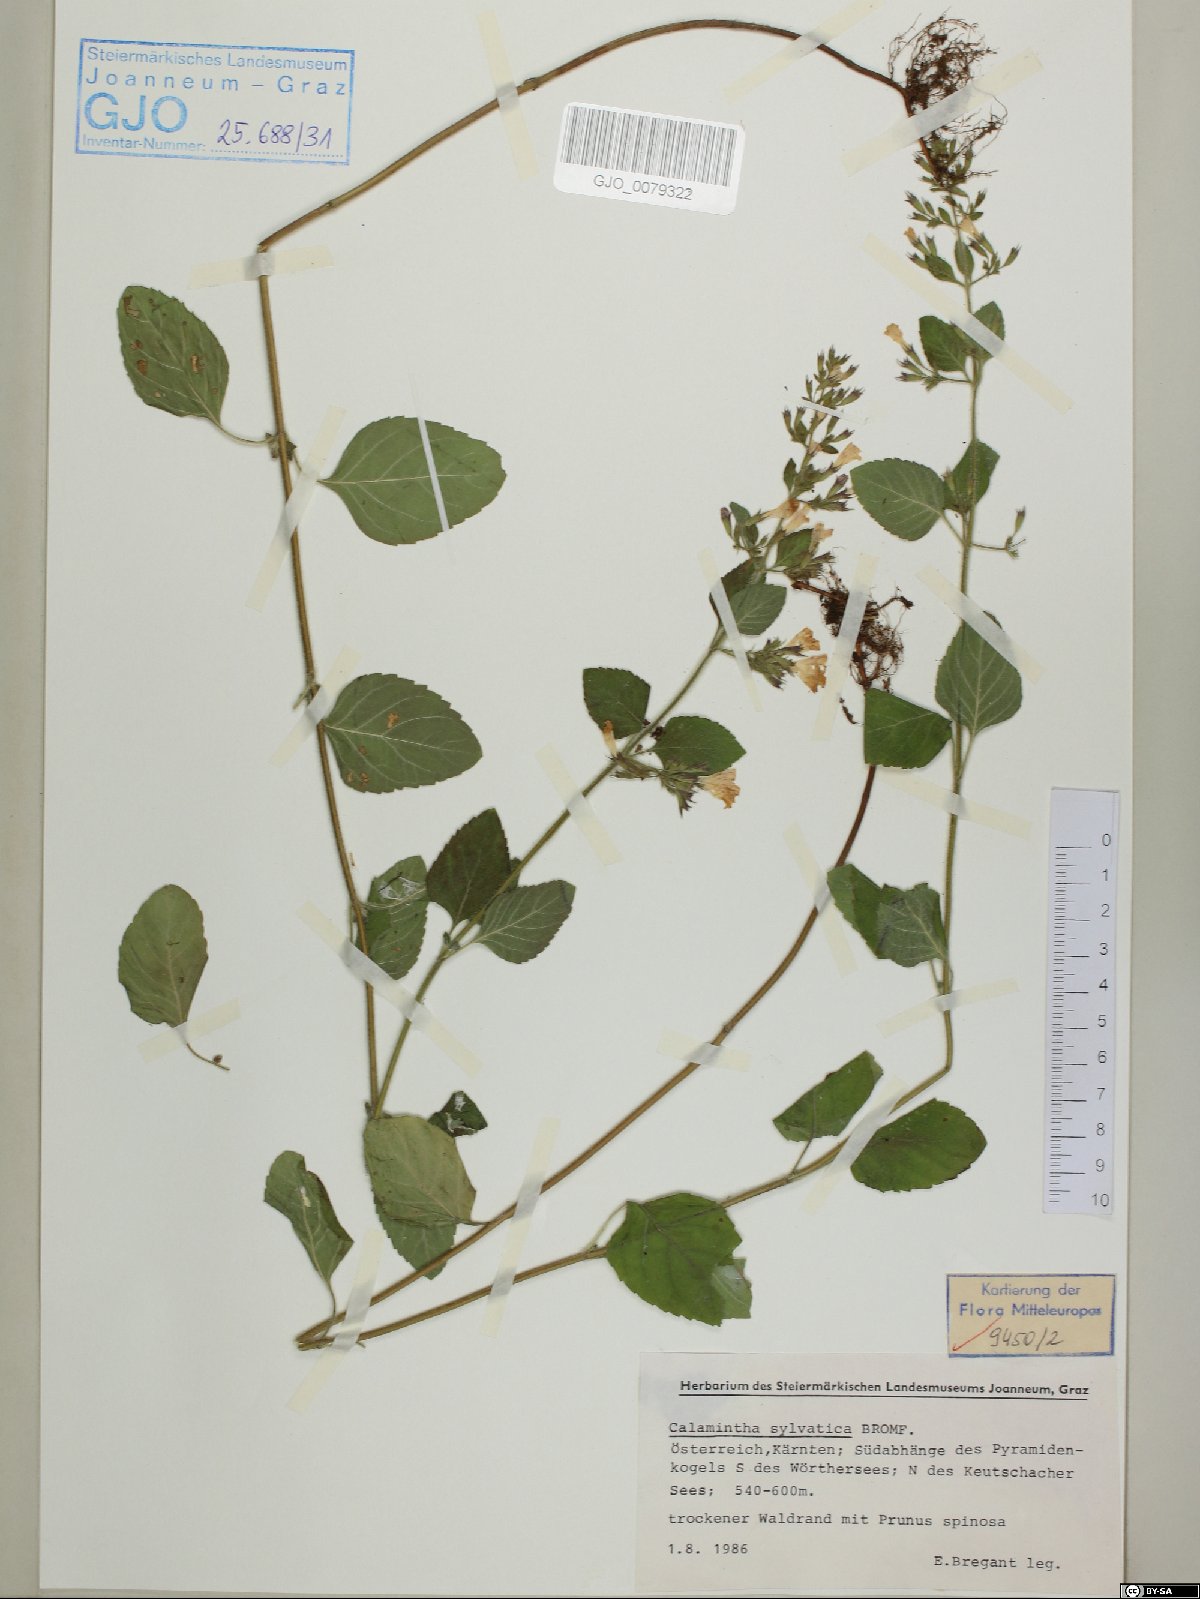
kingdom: Plantae
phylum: Tracheophyta
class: Magnoliopsida
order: Lamiales
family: Lamiaceae
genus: Clinopodium
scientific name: Clinopodium menthifolium
